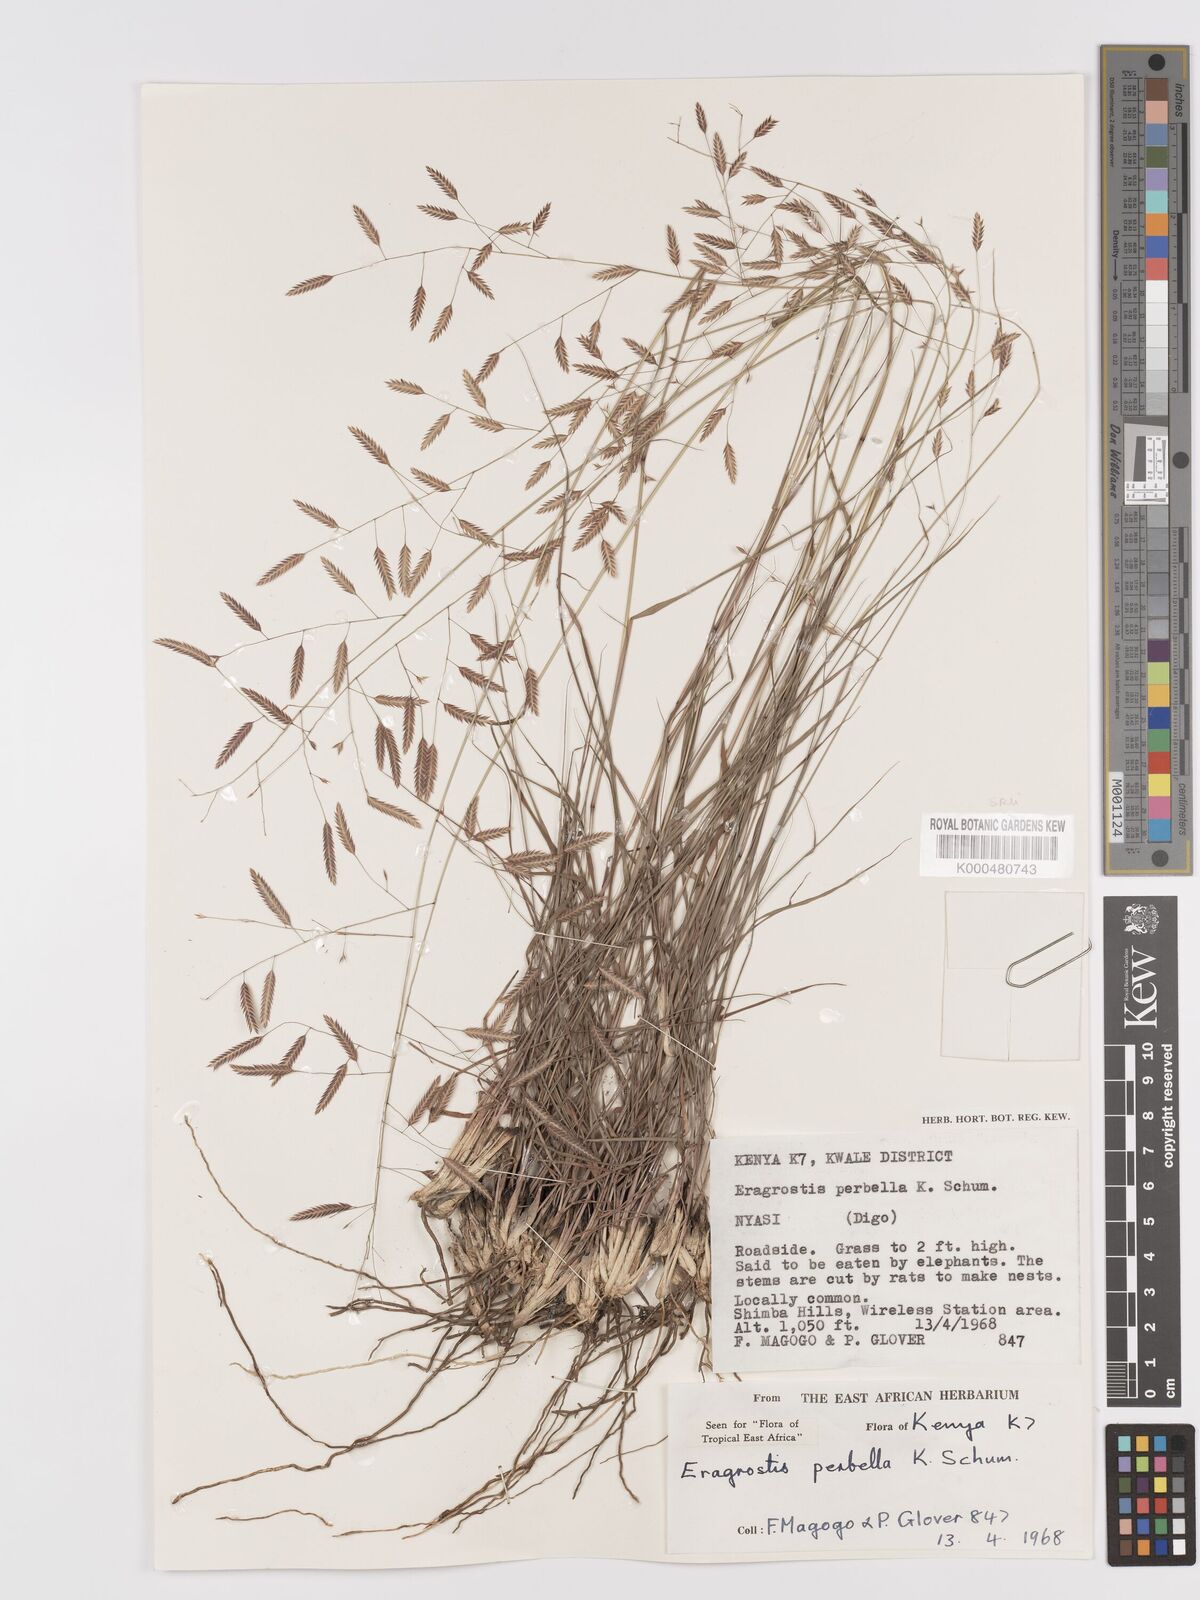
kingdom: Plantae
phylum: Tracheophyta
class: Liliopsida
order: Poales
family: Poaceae
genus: Eragrostis
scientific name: Eragrostis perbella
